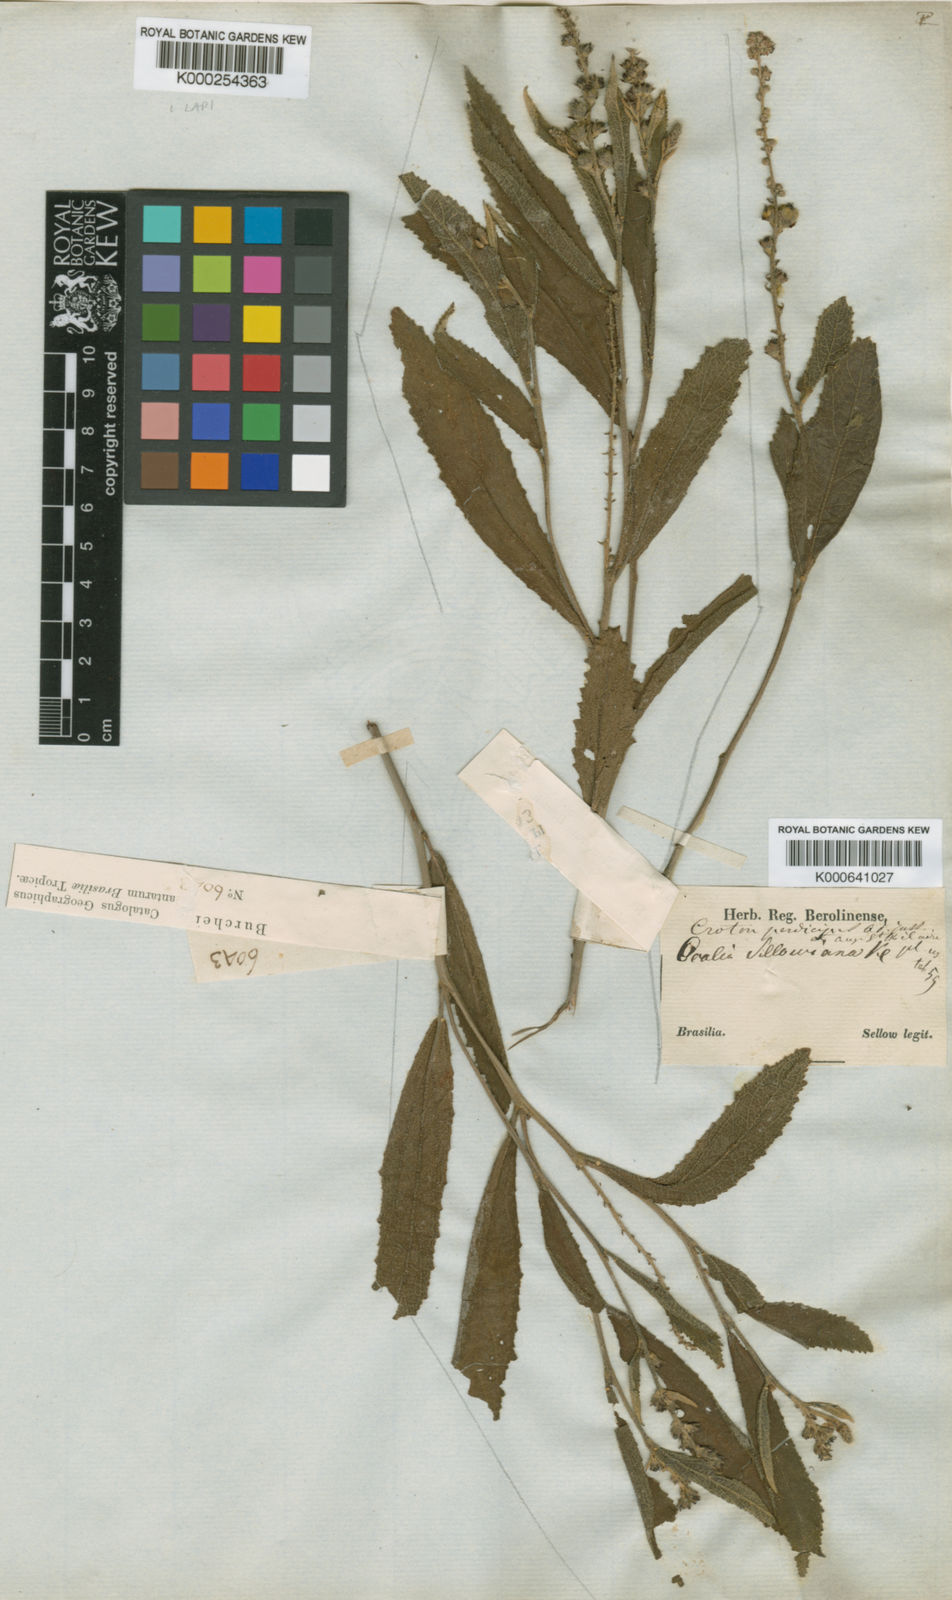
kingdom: Plantae
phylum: Tracheophyta
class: Magnoliopsida
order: Malpighiales
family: Euphorbiaceae
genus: Croton
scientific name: Croton antisyphiliticus
